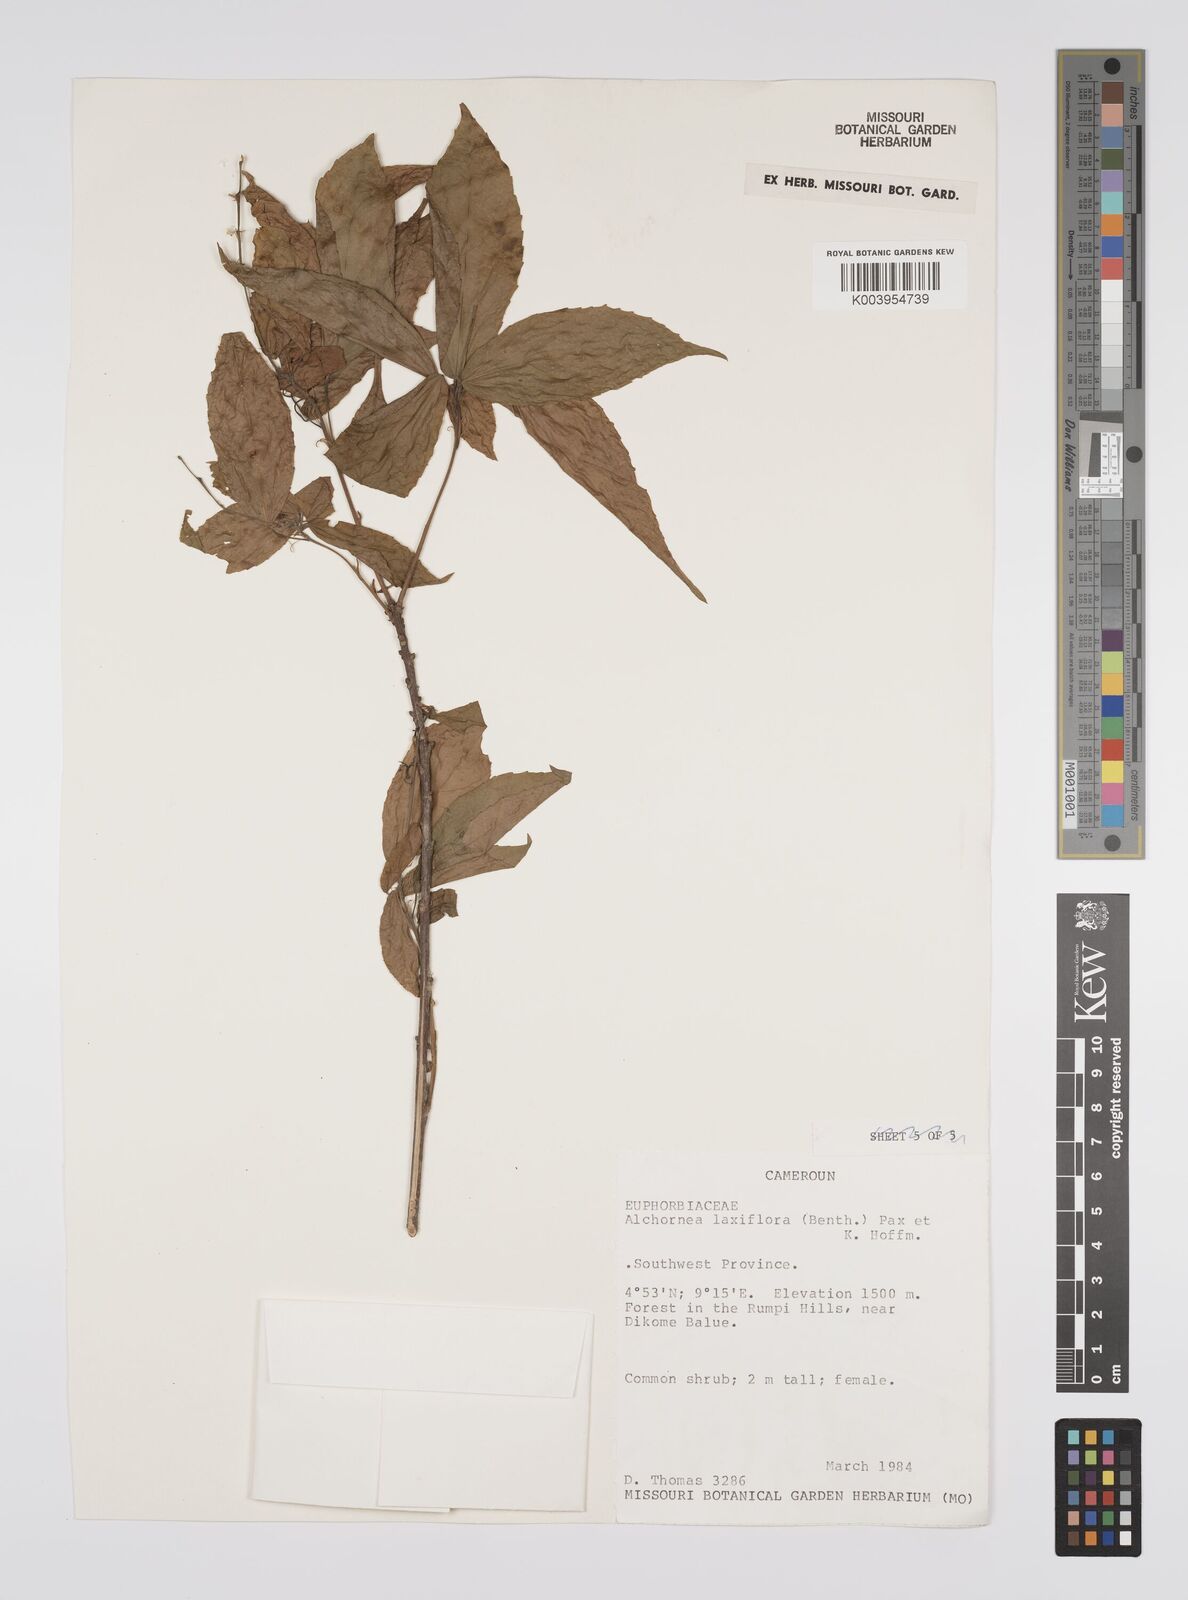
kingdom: Plantae
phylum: Tracheophyta
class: Magnoliopsida
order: Malpighiales
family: Euphorbiaceae
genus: Alchornea
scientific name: Alchornea laxiflora
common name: Lowveld bead-string
